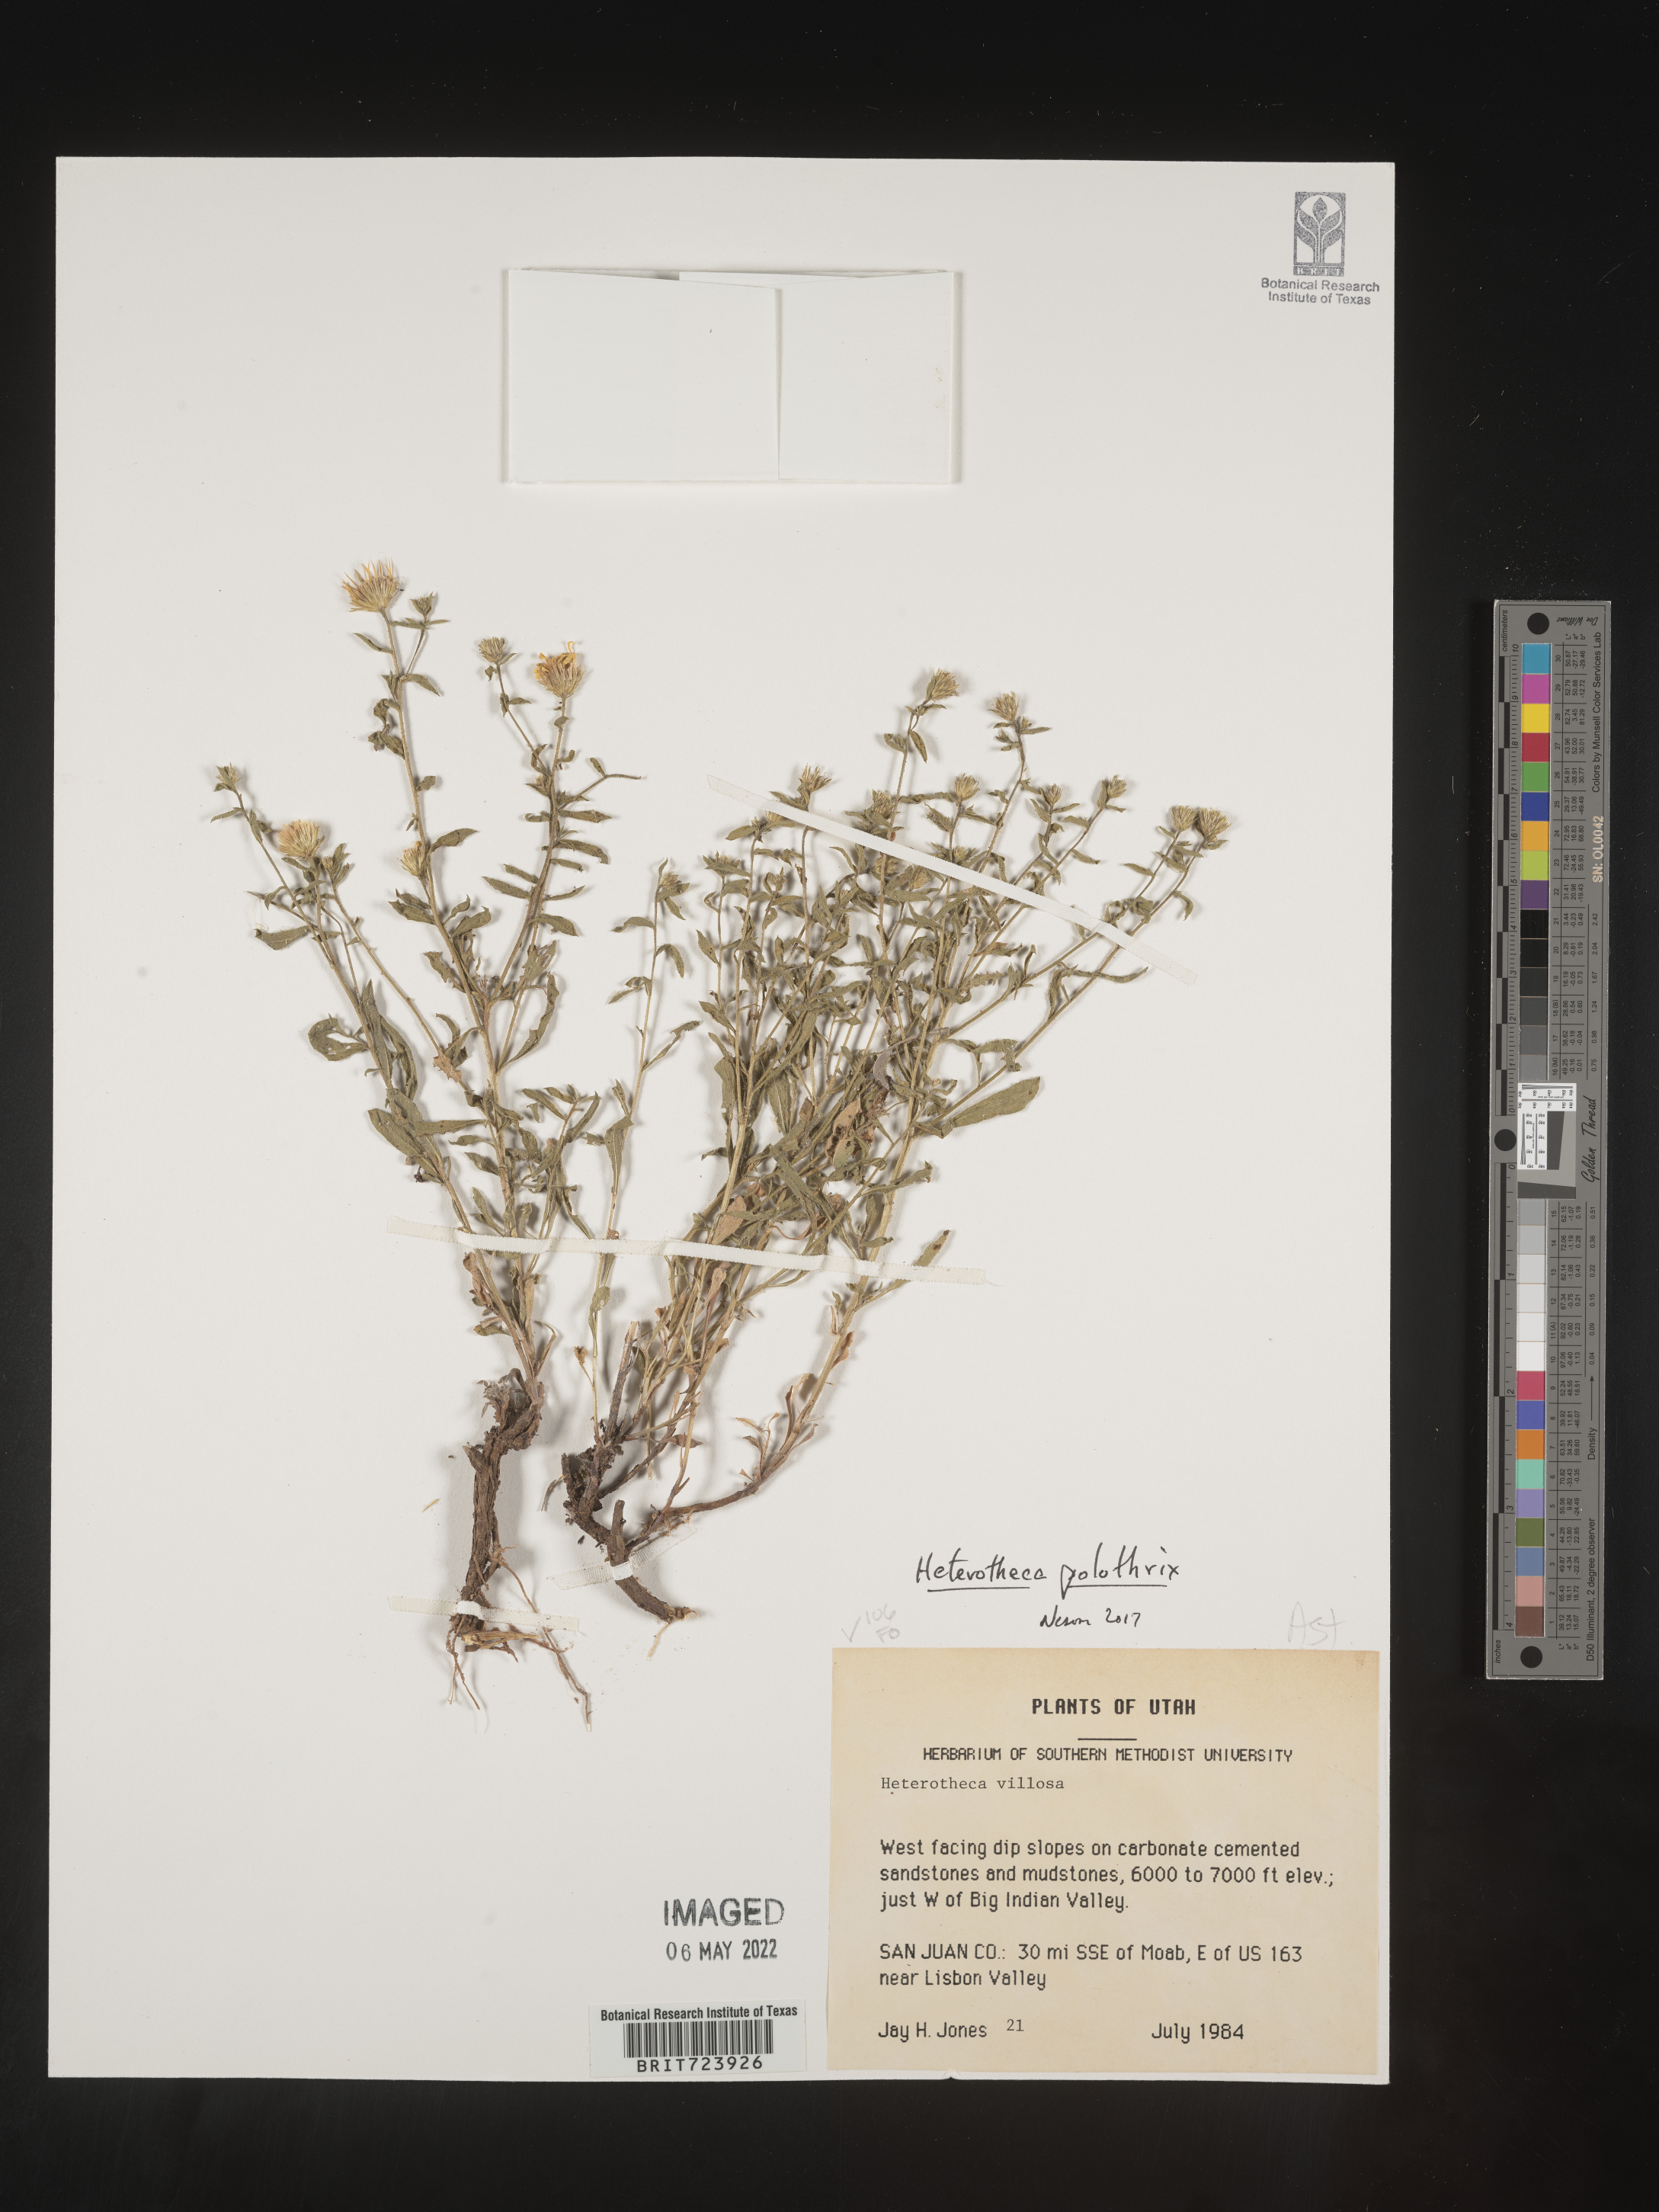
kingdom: Plantae
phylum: Tracheophyta
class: Magnoliopsida
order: Asterales
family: Asteraceae
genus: Heterotheca
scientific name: Heterotheca polothrix
